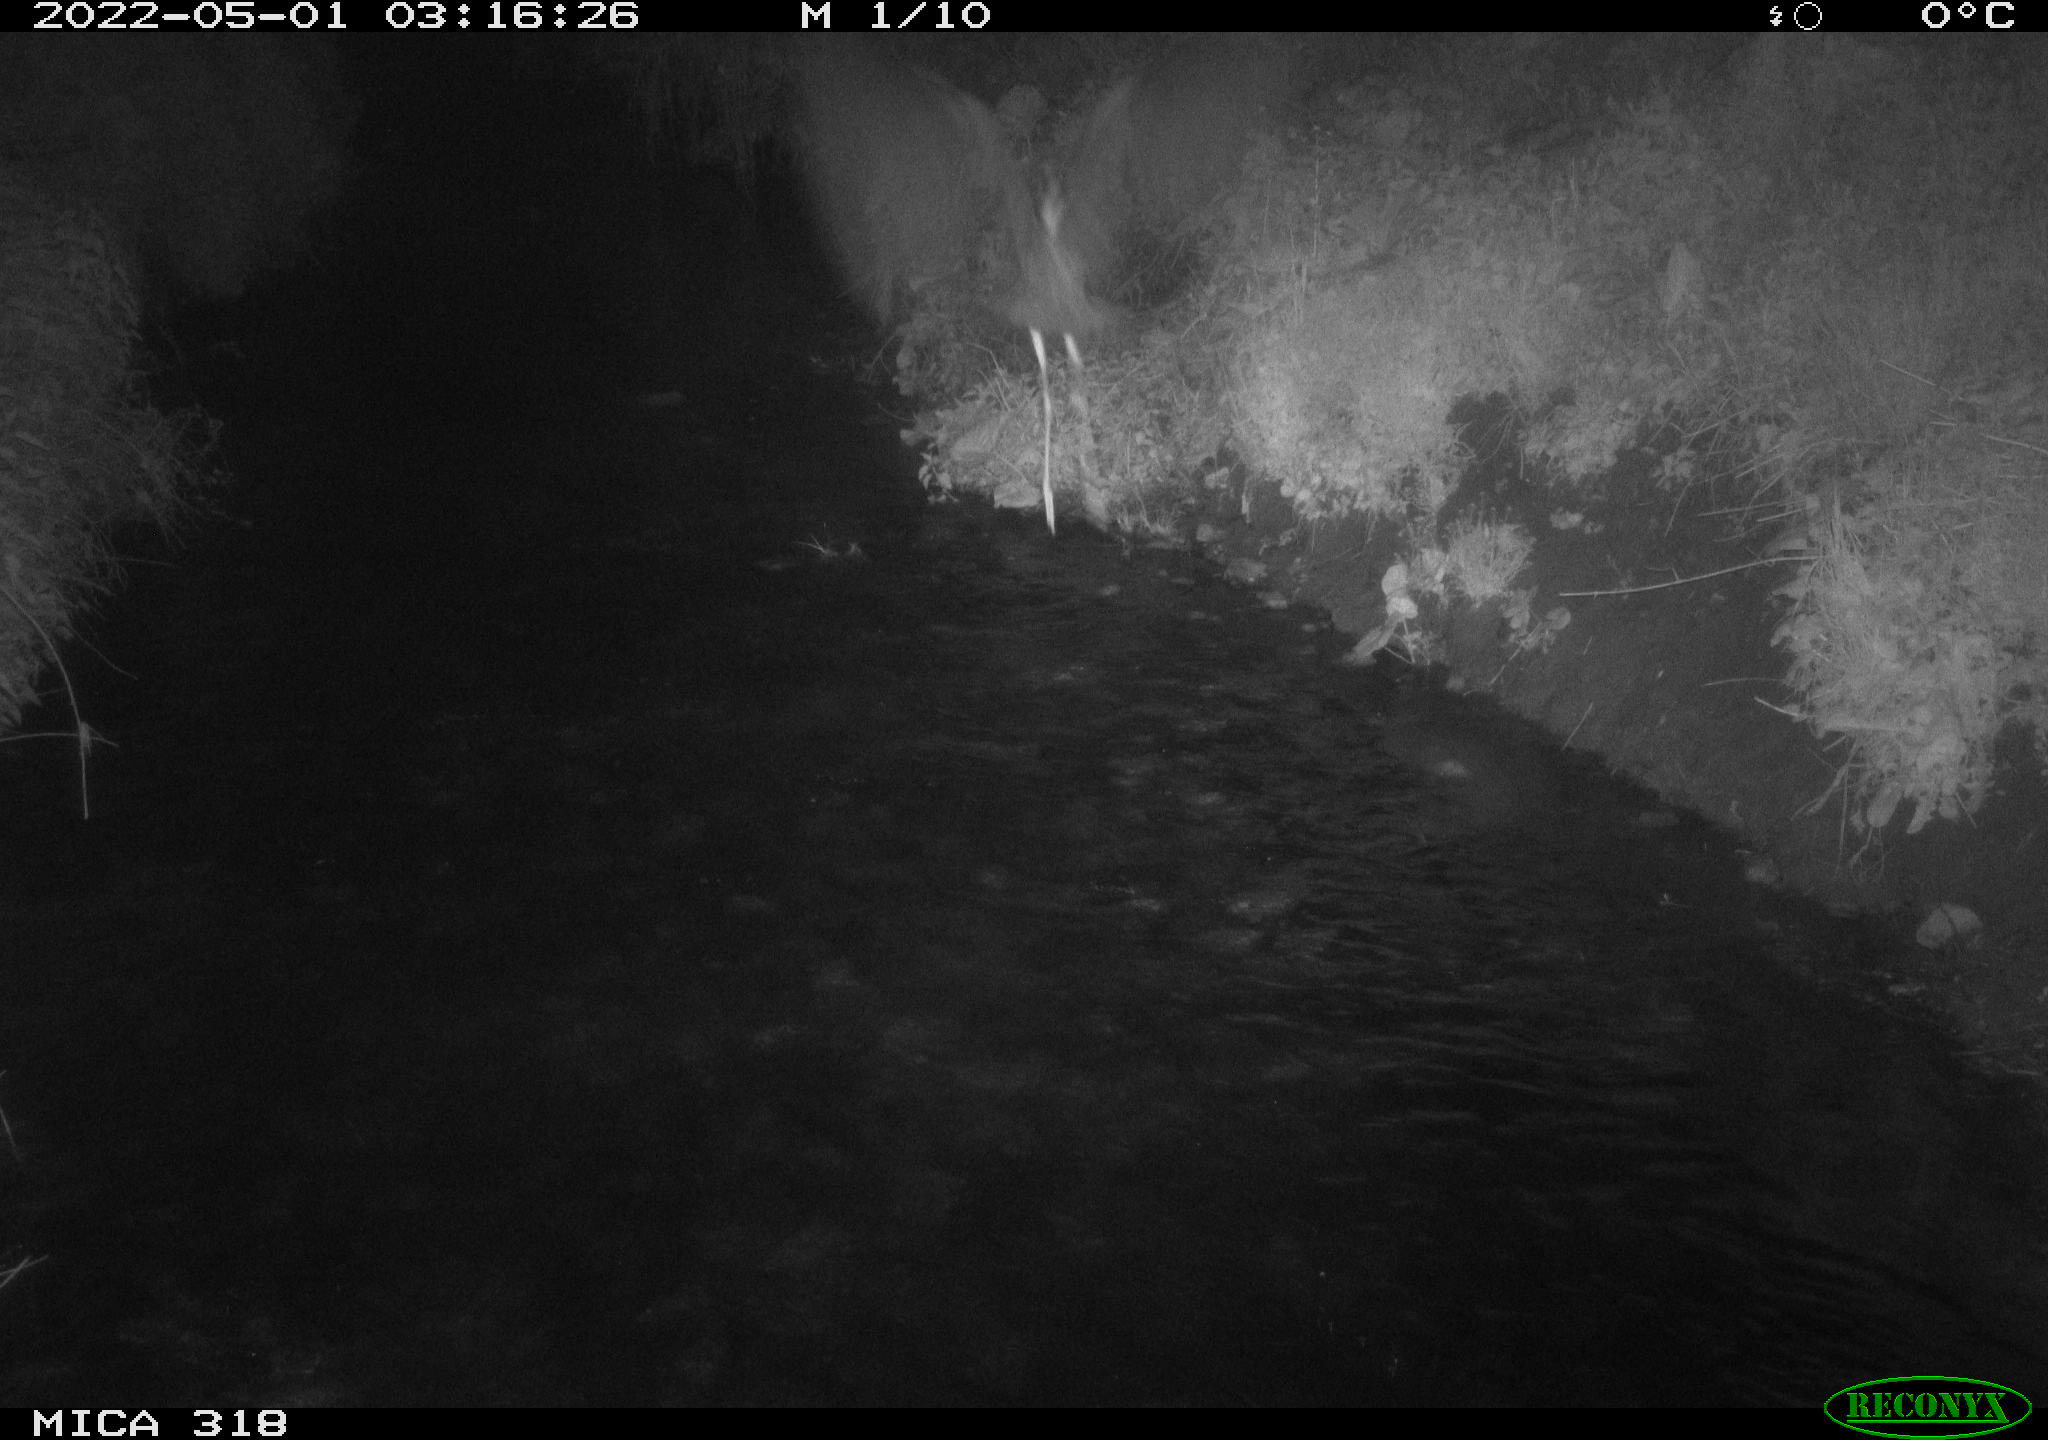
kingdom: Animalia
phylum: Chordata
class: Aves
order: Pelecaniformes
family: Ardeidae
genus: Ardea
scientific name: Ardea
